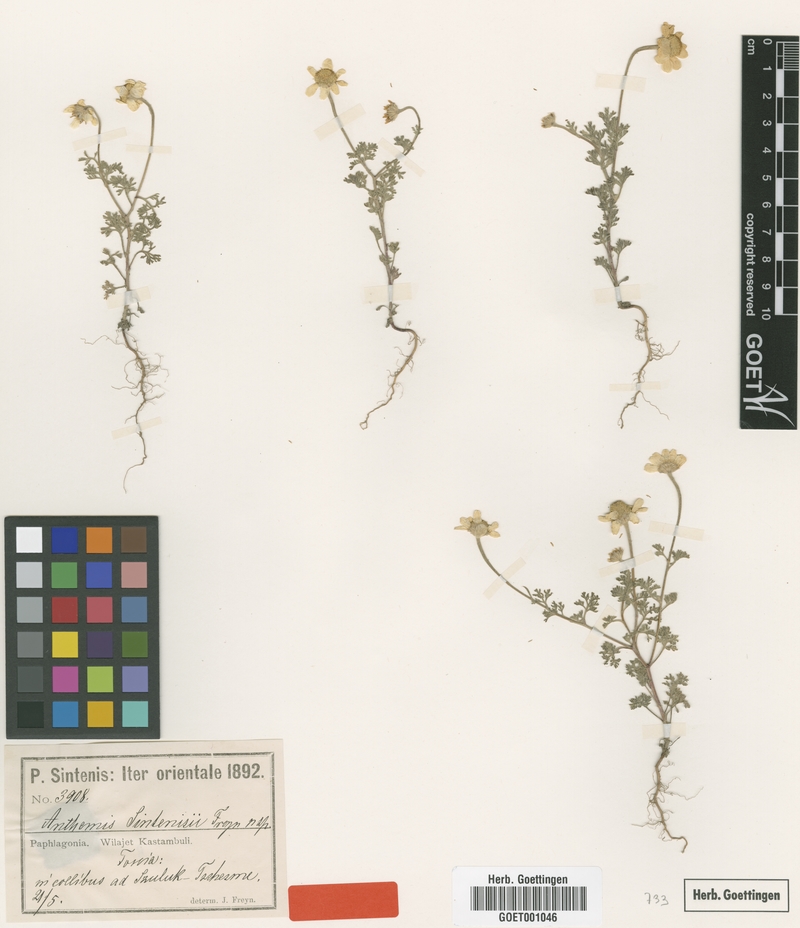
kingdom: Plantae
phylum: Tracheophyta
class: Magnoliopsida
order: Asterales
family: Asteraceae
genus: Anthemis
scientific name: Anthemis sintenisii
